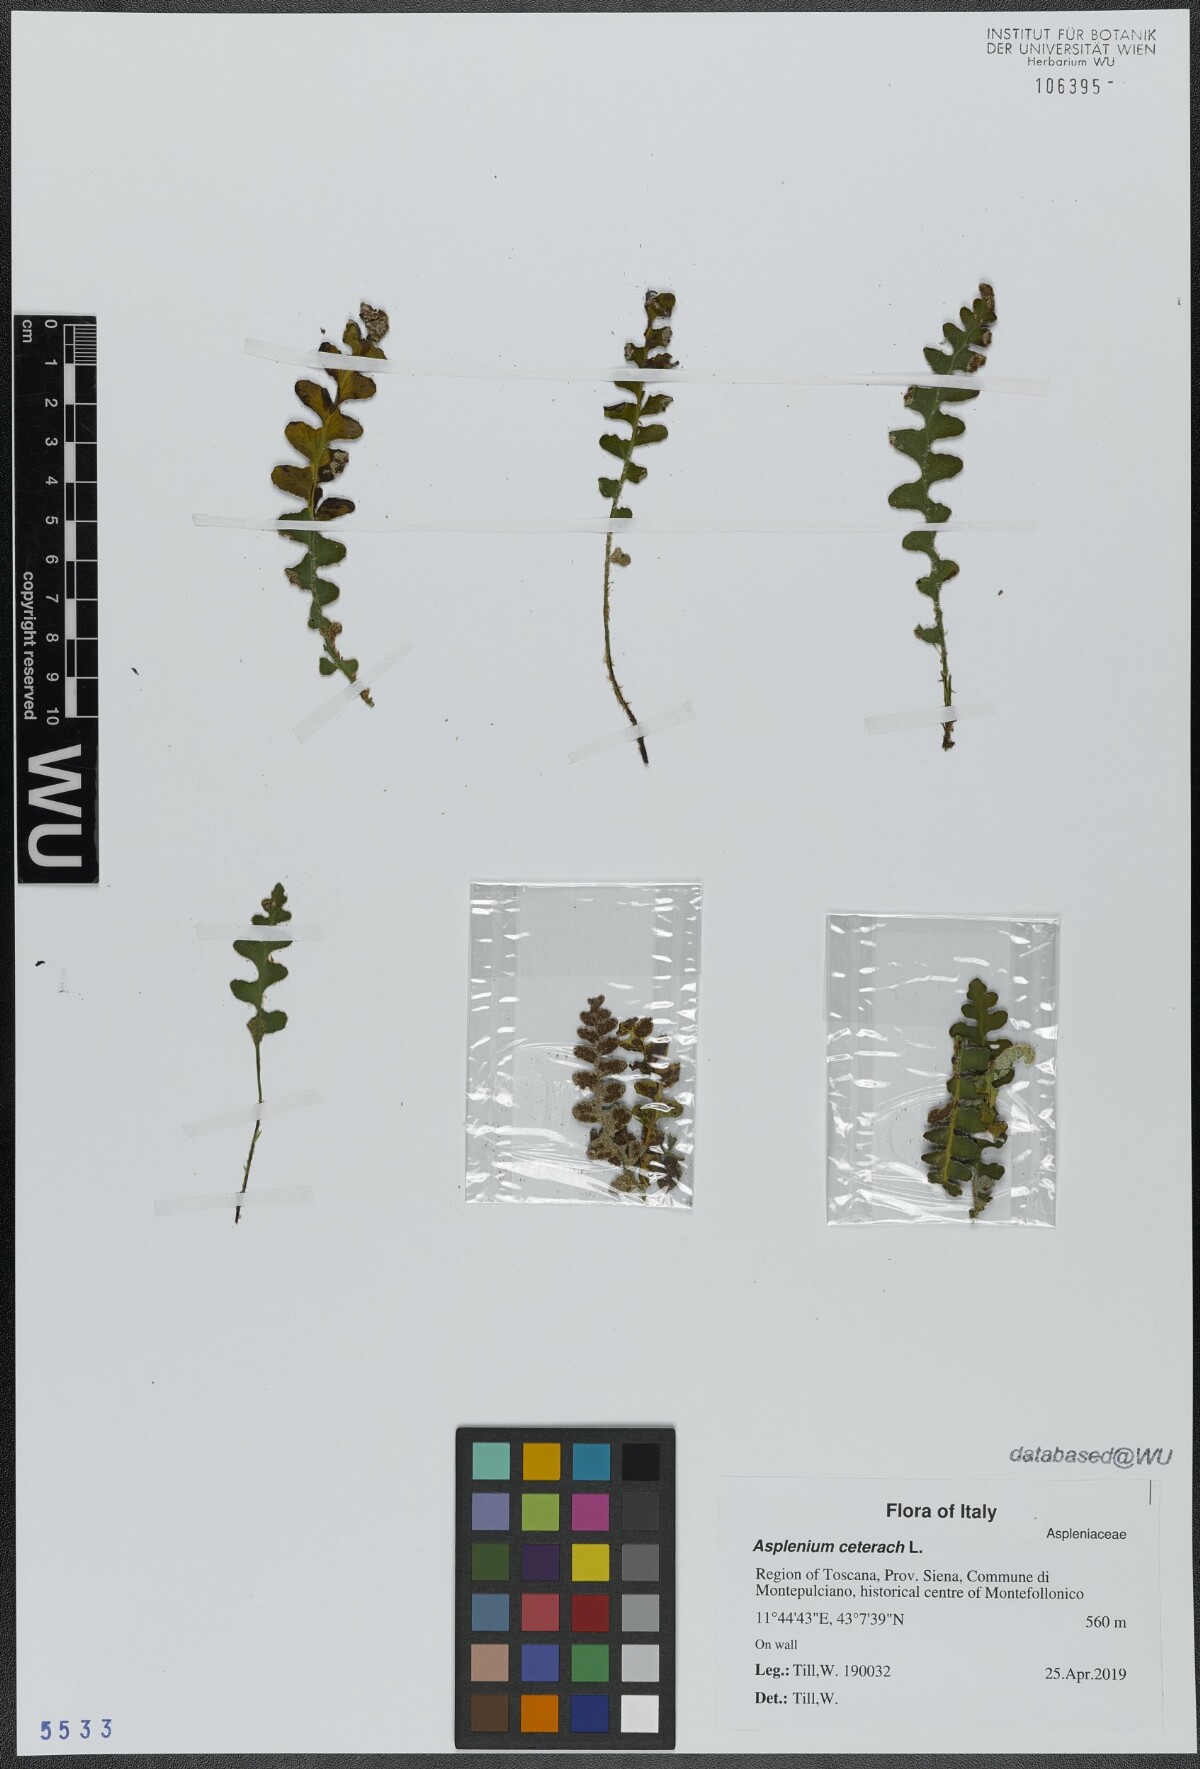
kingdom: Plantae
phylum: Tracheophyta
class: Polypodiopsida
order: Polypodiales
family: Aspleniaceae
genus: Asplenium
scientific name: Asplenium ceterach
